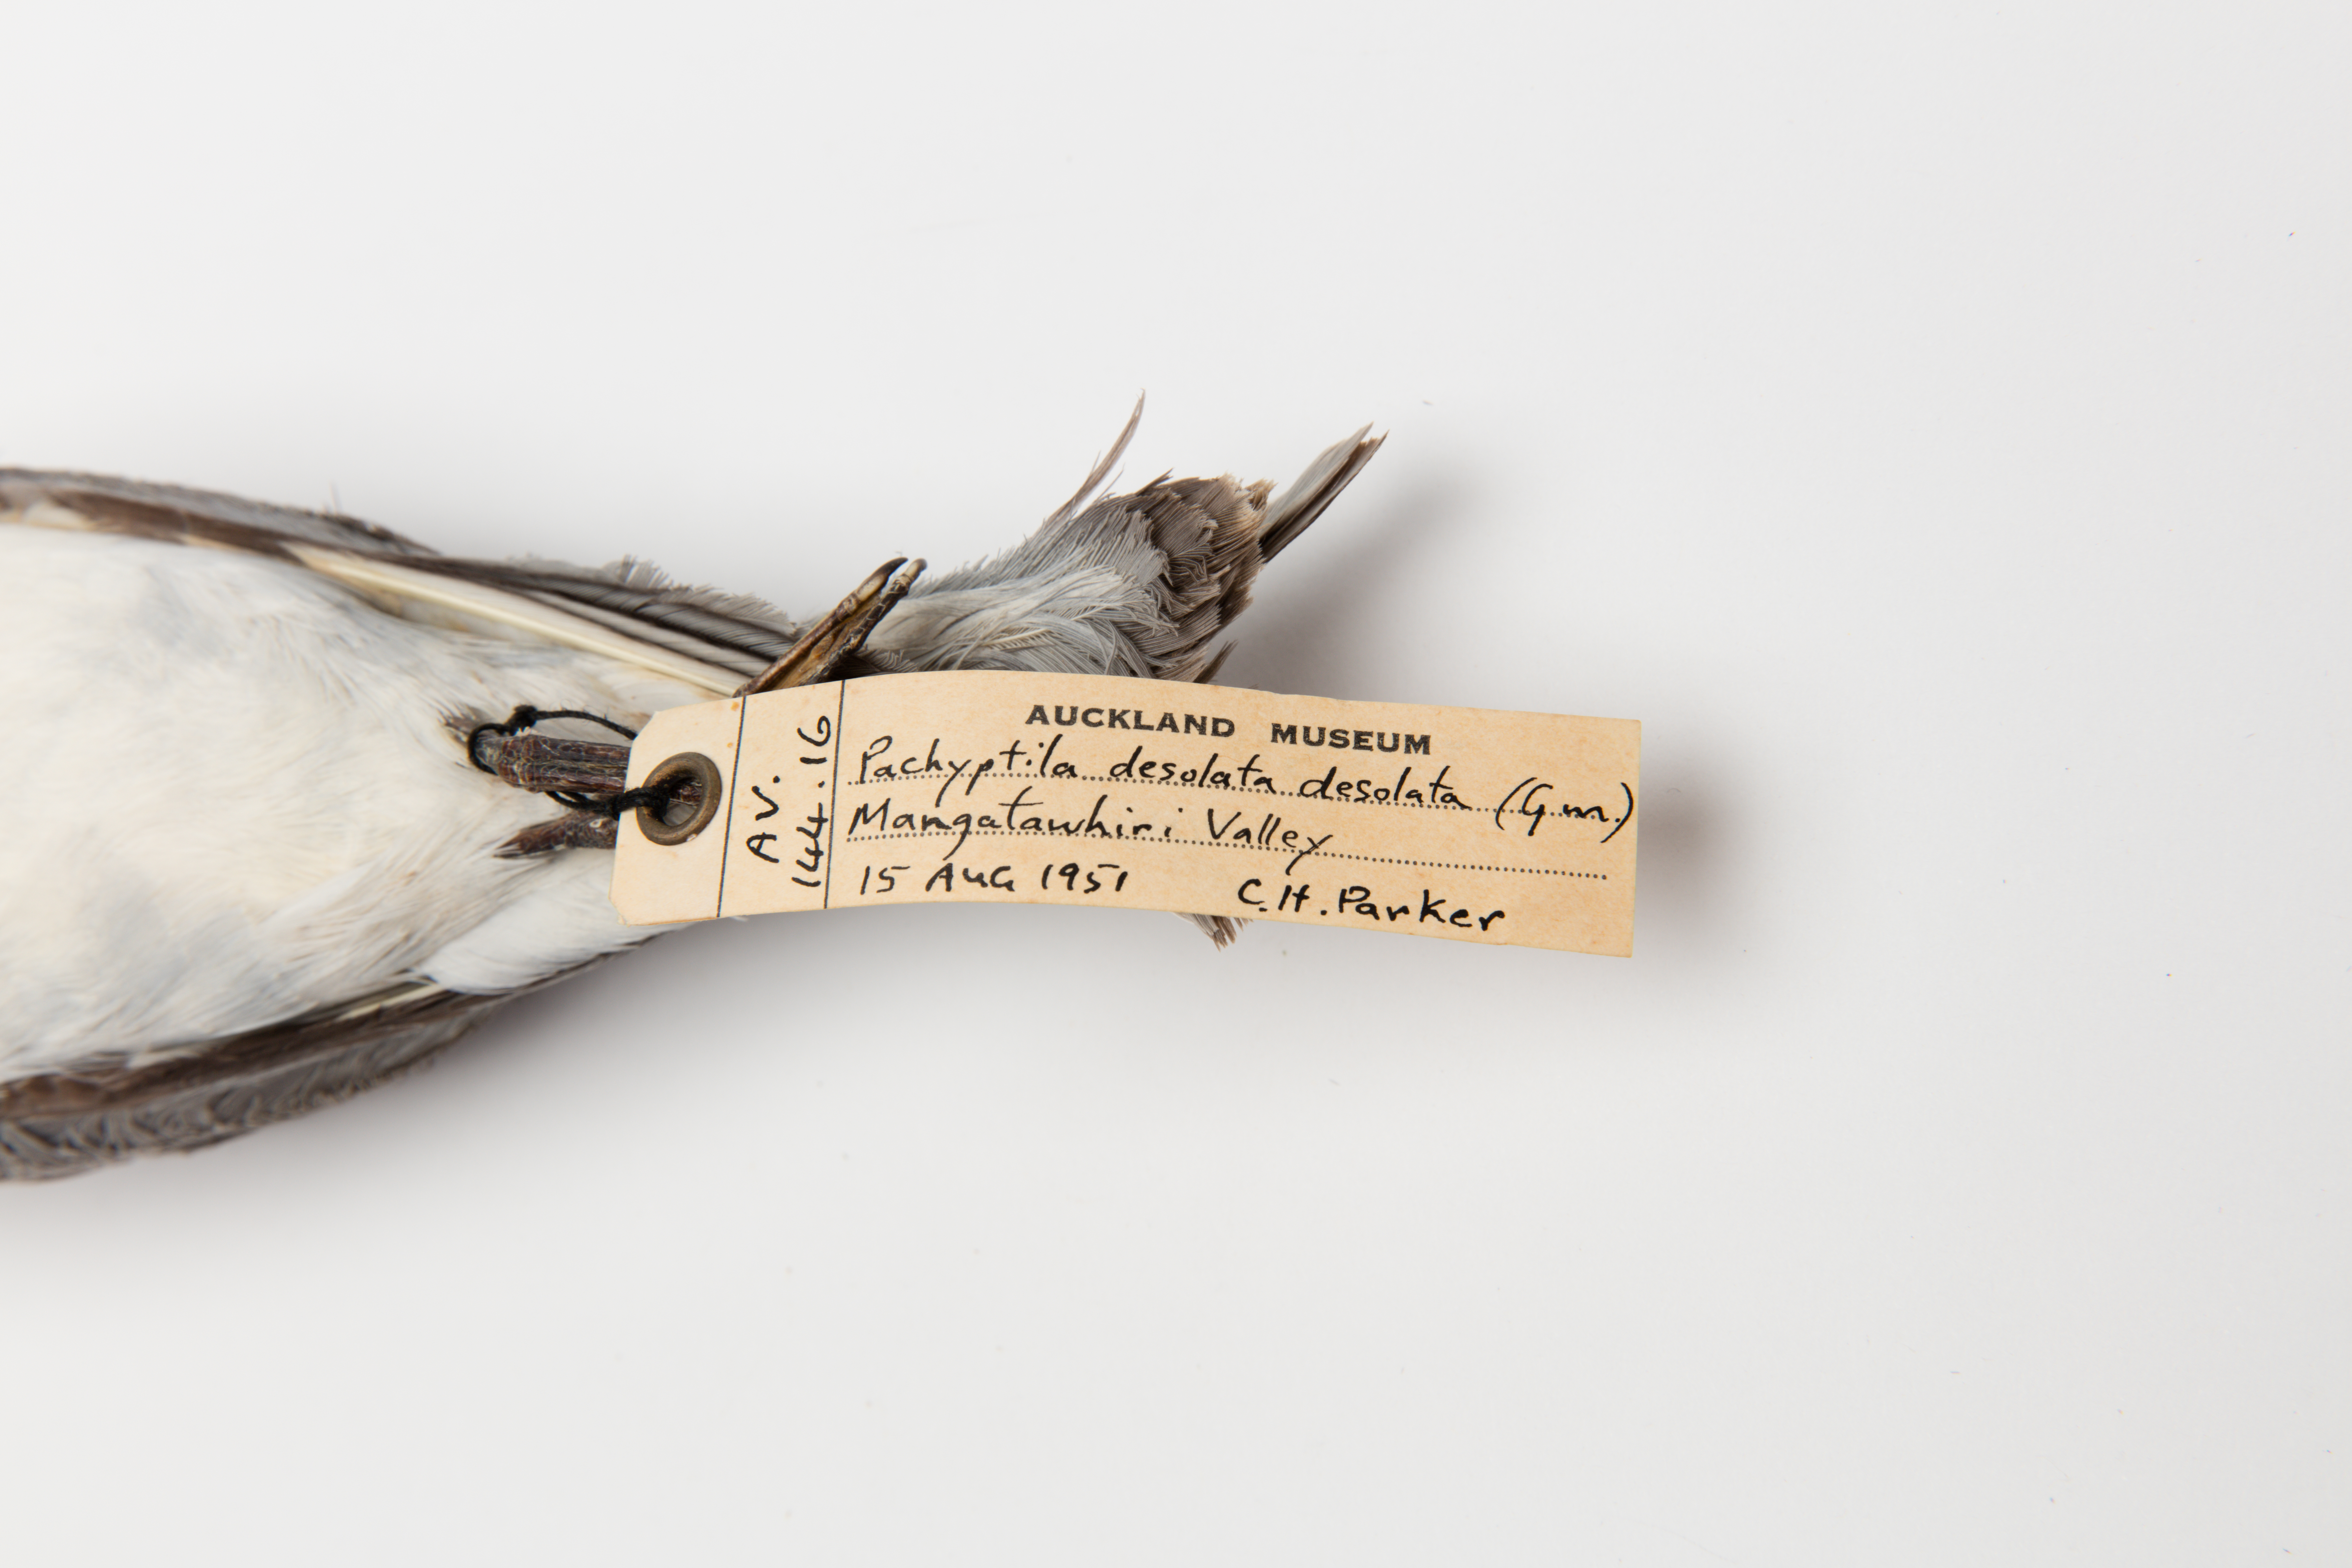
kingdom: Animalia
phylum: Chordata
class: Aves
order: Procellariiformes
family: Procellariidae
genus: Pachyptila
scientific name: Pachyptila desolata
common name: Antarctic prion
